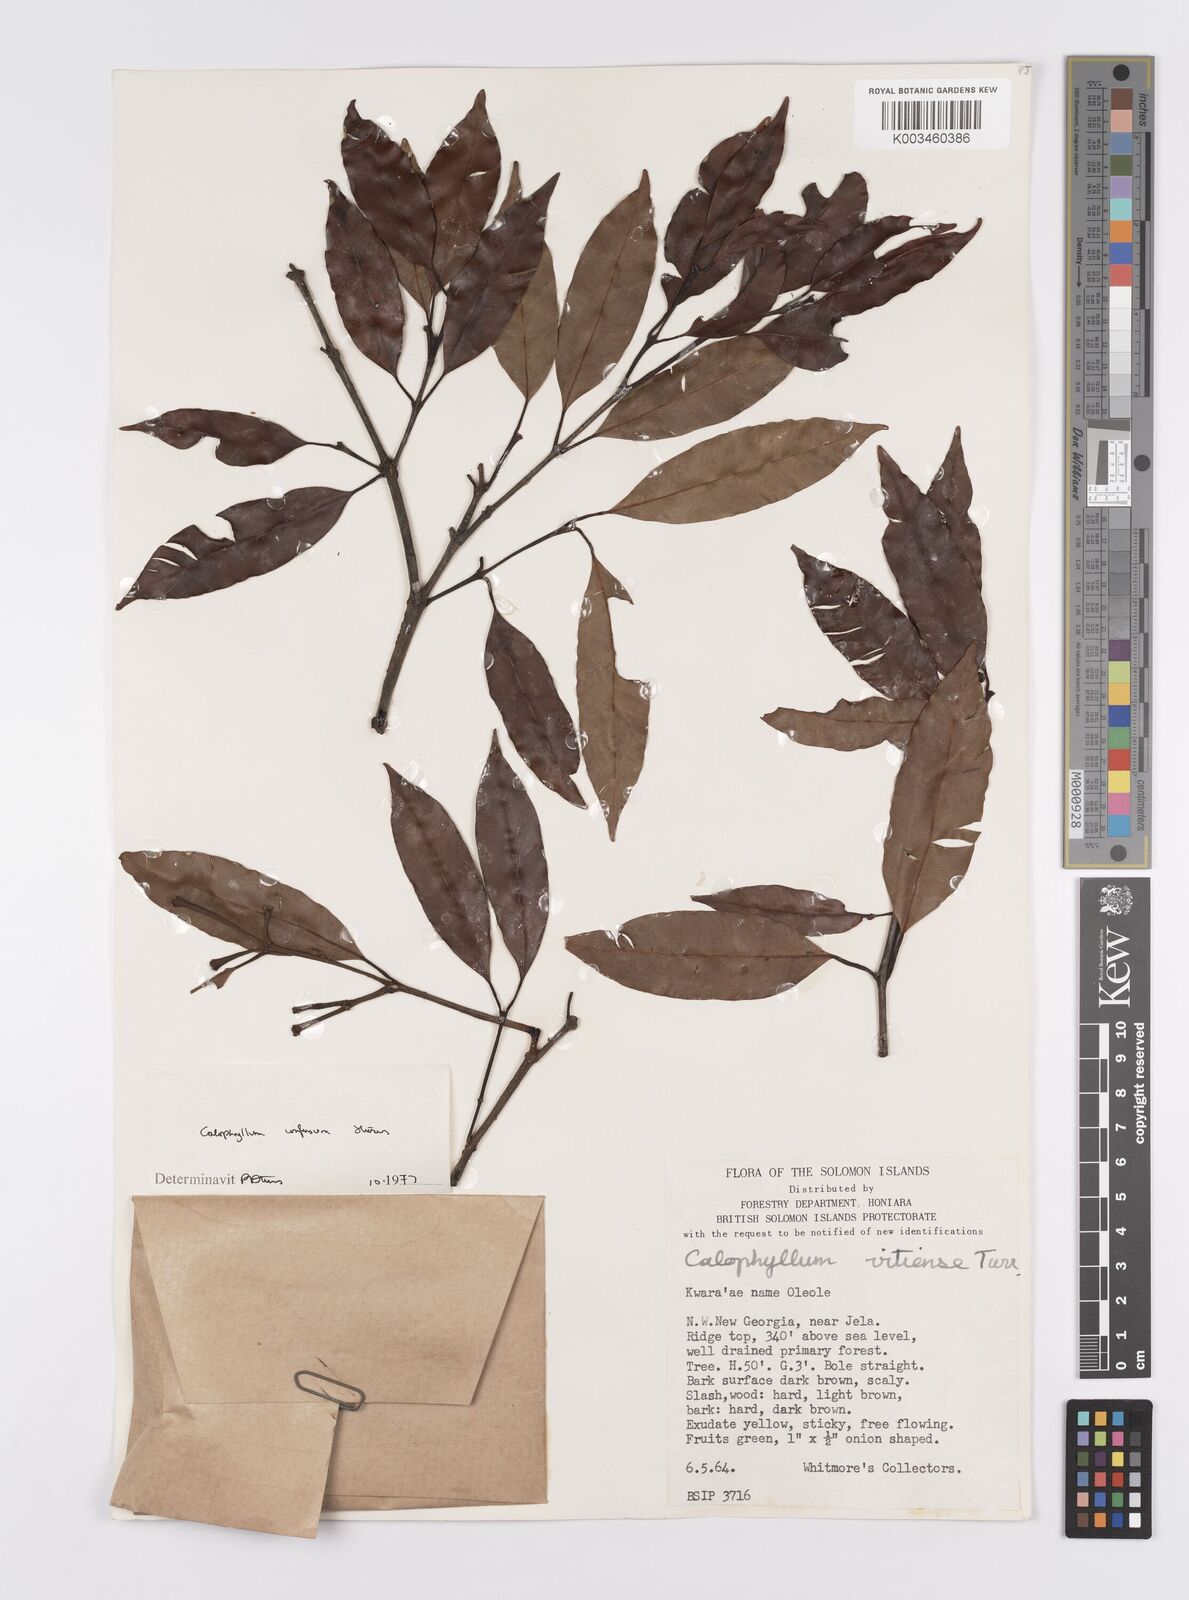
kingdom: Plantae
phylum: Tracheophyta
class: Magnoliopsida
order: Malpighiales
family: Calophyllaceae
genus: Calophyllum
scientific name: Calophyllum cerasiferum
